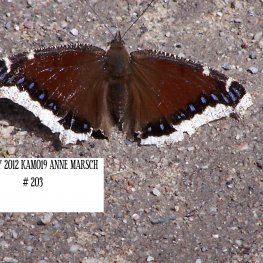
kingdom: Animalia
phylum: Arthropoda
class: Insecta
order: Lepidoptera
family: Nymphalidae
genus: Nymphalis
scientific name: Nymphalis antiopa
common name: Mourning Cloak
